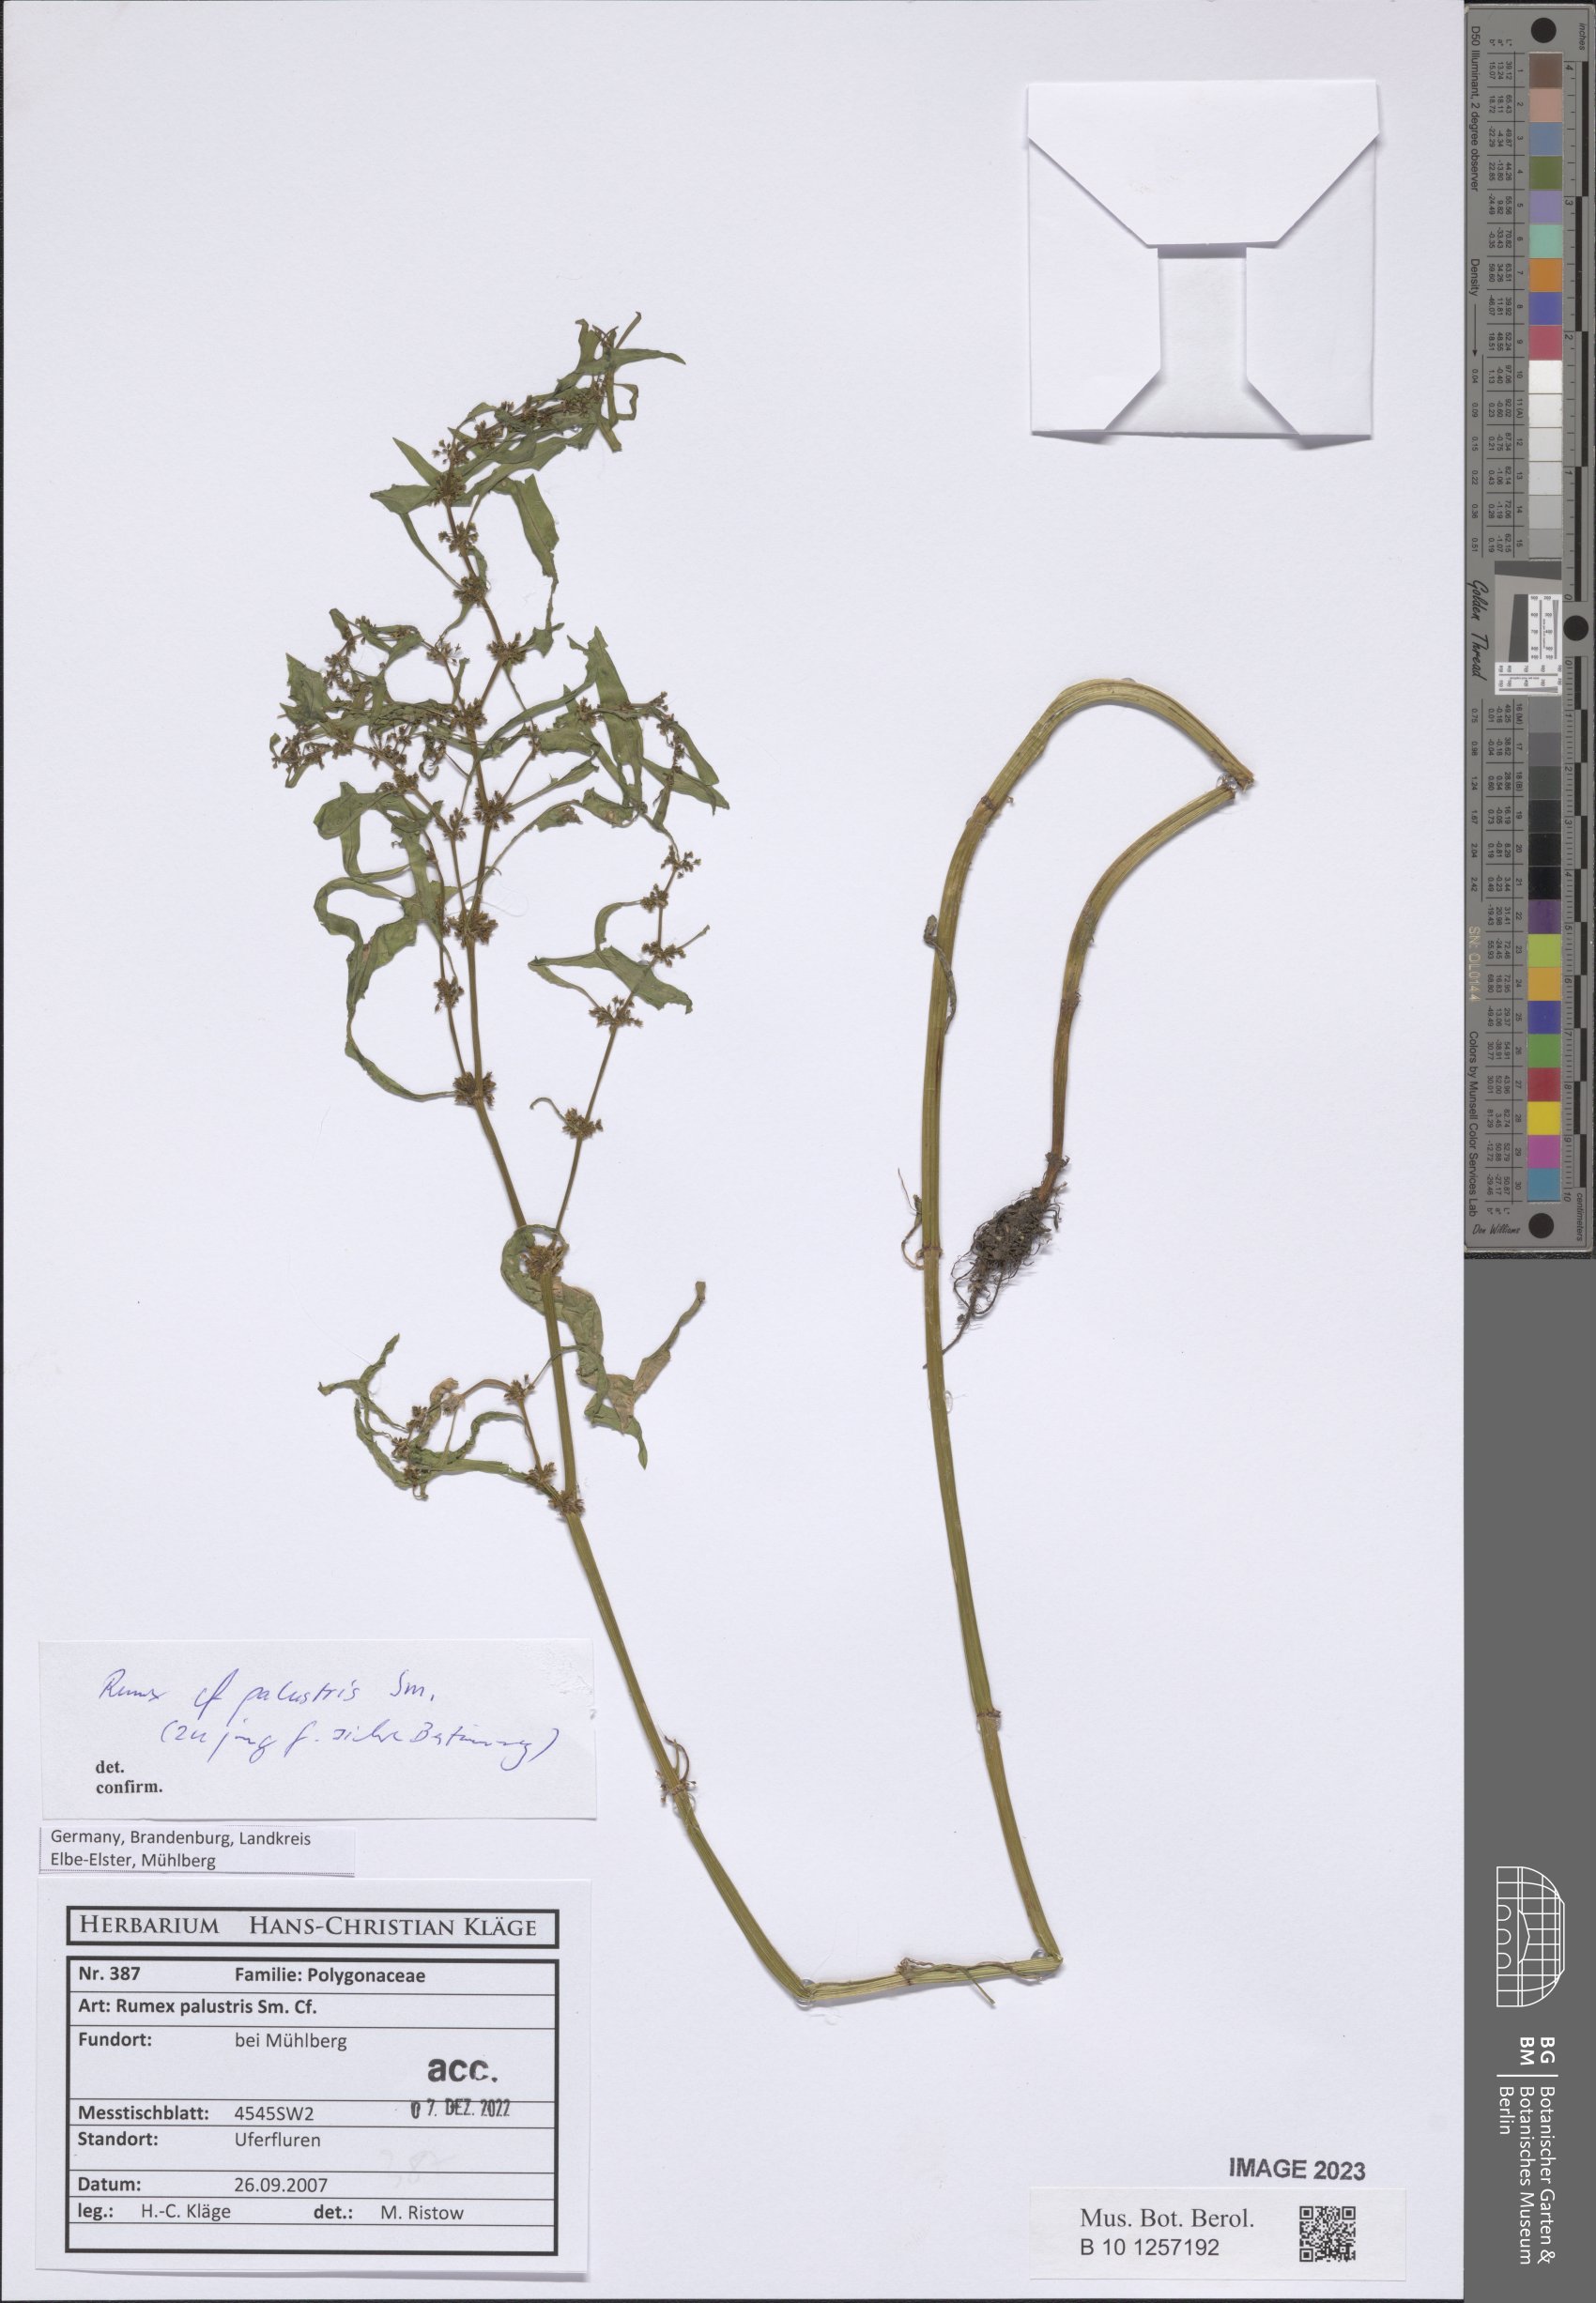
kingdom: Plantae
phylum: Tracheophyta
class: Magnoliopsida
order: Caryophyllales
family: Polygonaceae
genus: Rumex
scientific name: Rumex palustris
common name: Marsh dock
